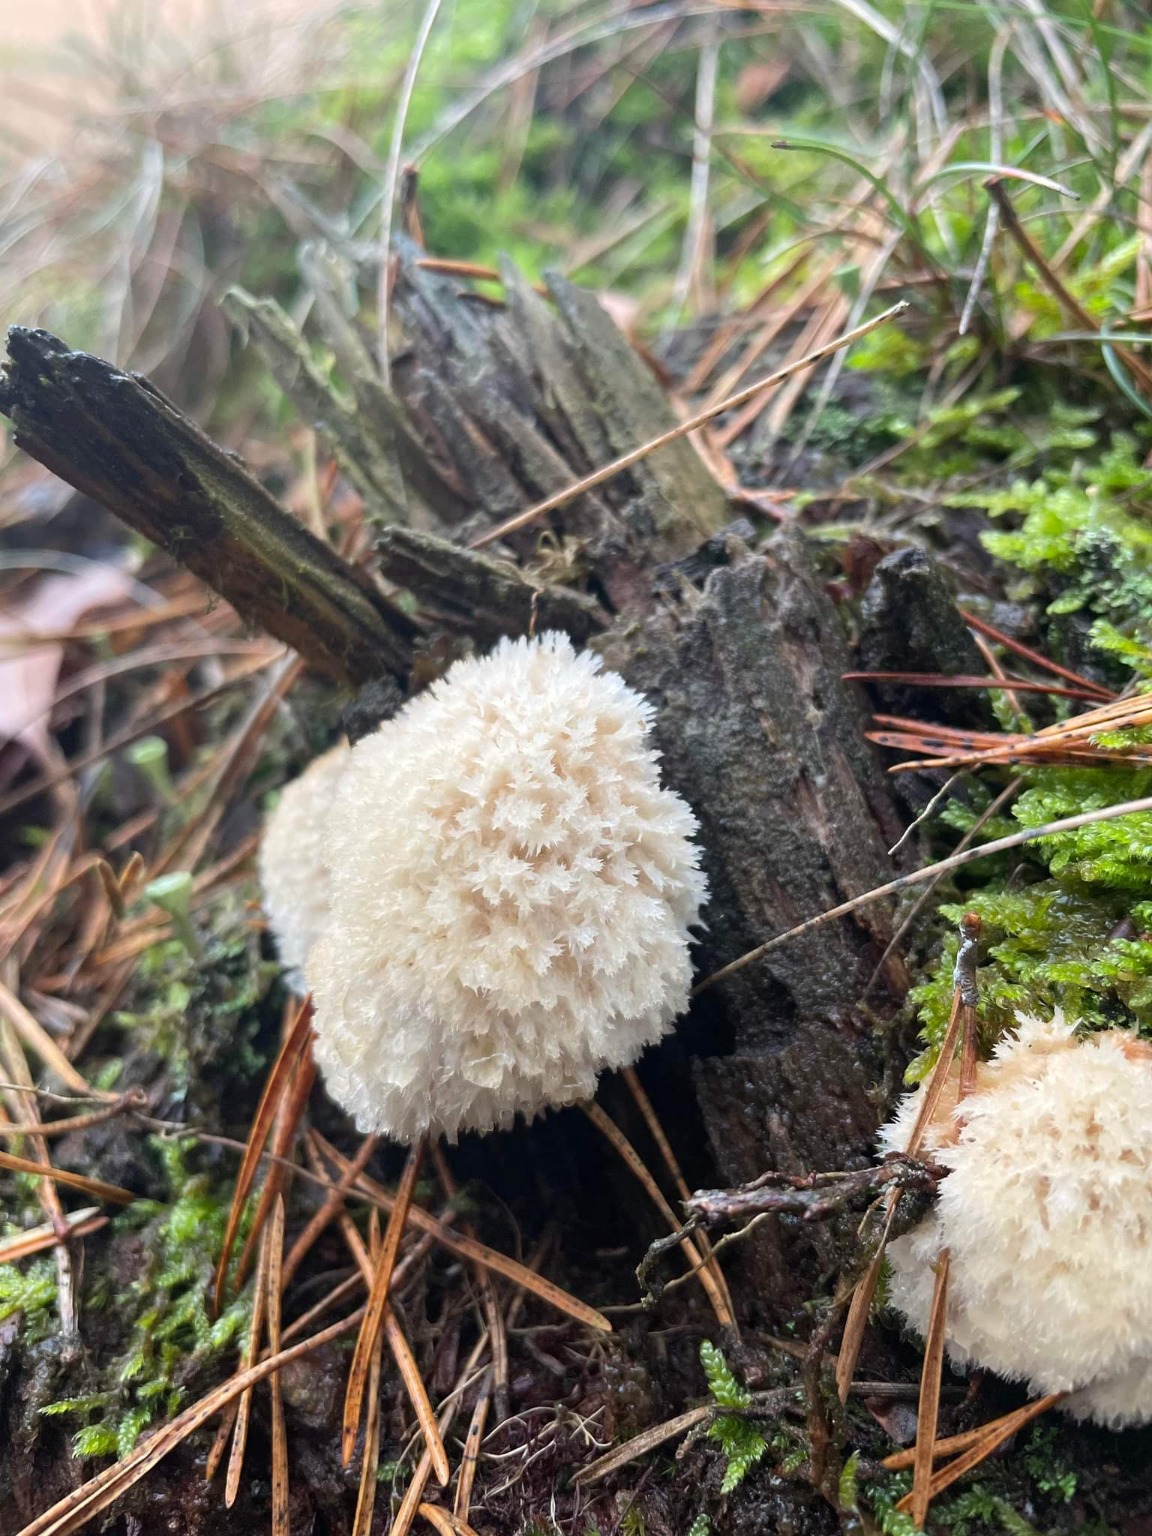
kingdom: Fungi
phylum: Basidiomycota
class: Agaricomycetes
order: Polyporales
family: Dacryobolaceae
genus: Postia
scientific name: Postia ptychogaster
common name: Støvende kødporesvamp
